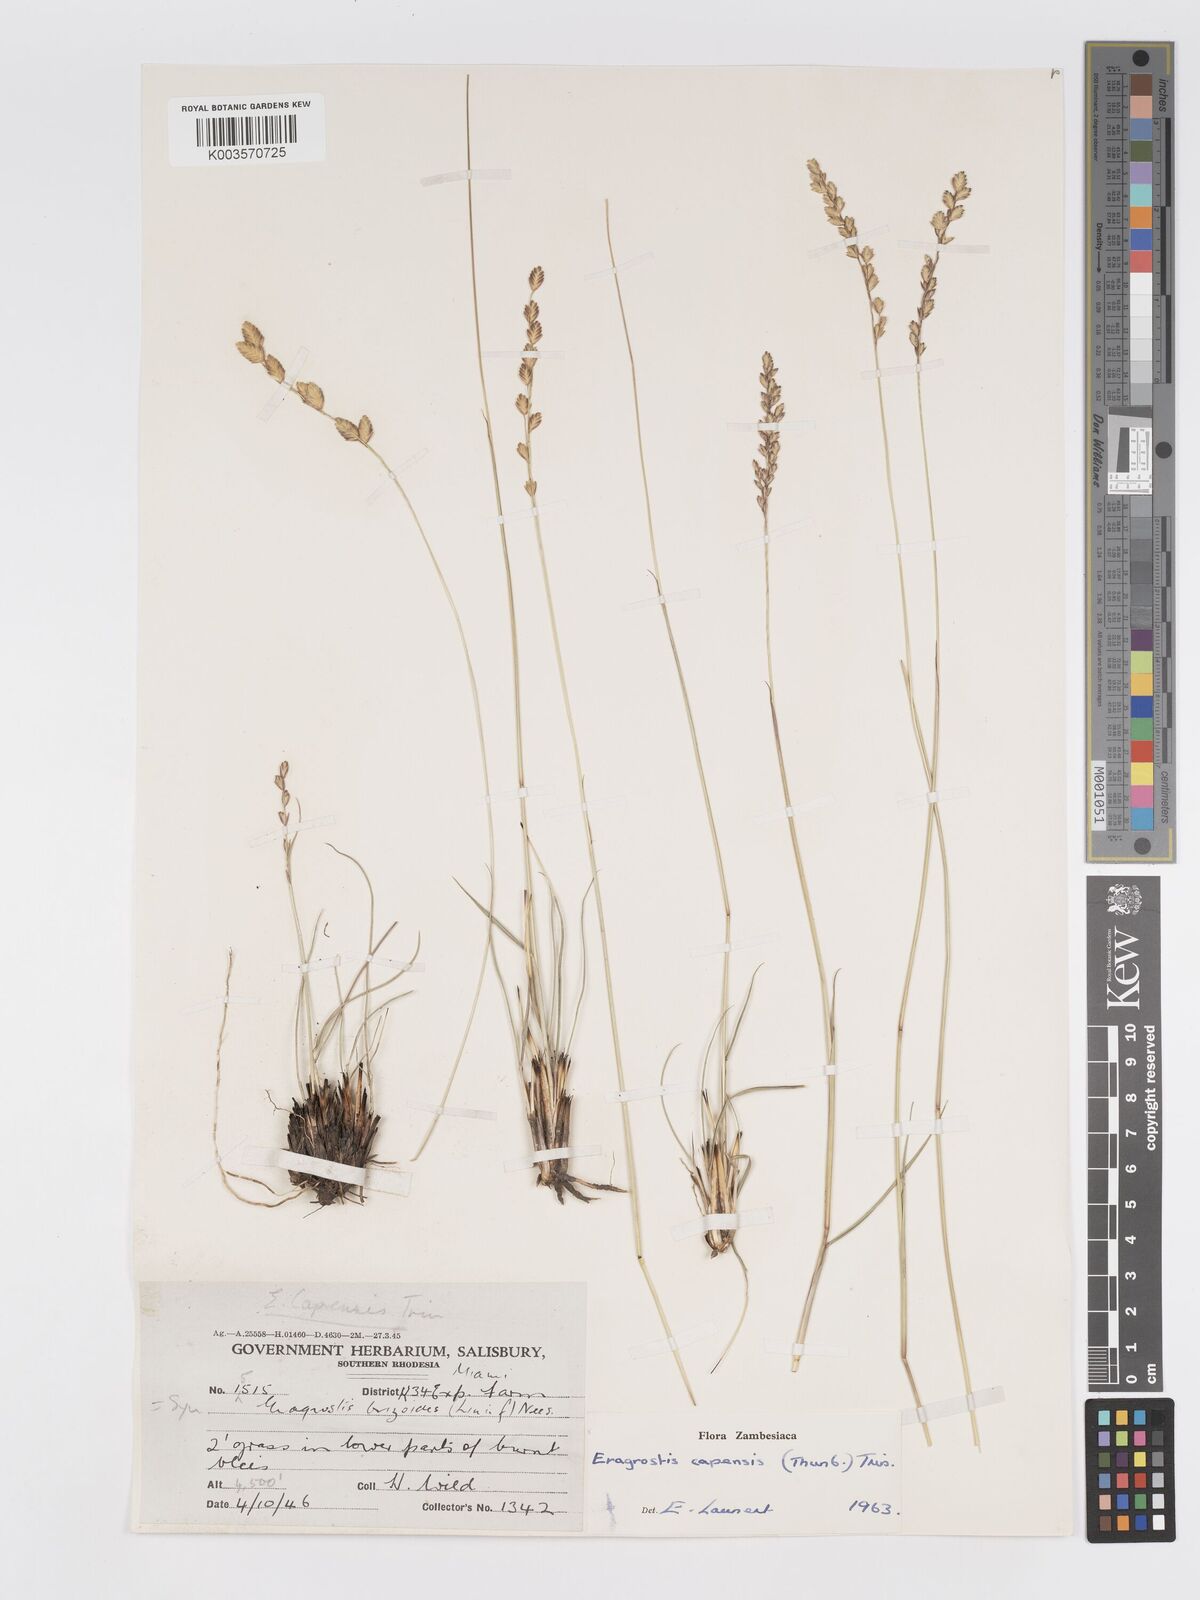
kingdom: Plantae
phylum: Tracheophyta
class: Liliopsida
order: Poales
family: Poaceae
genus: Eragrostis
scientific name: Eragrostis capensis
